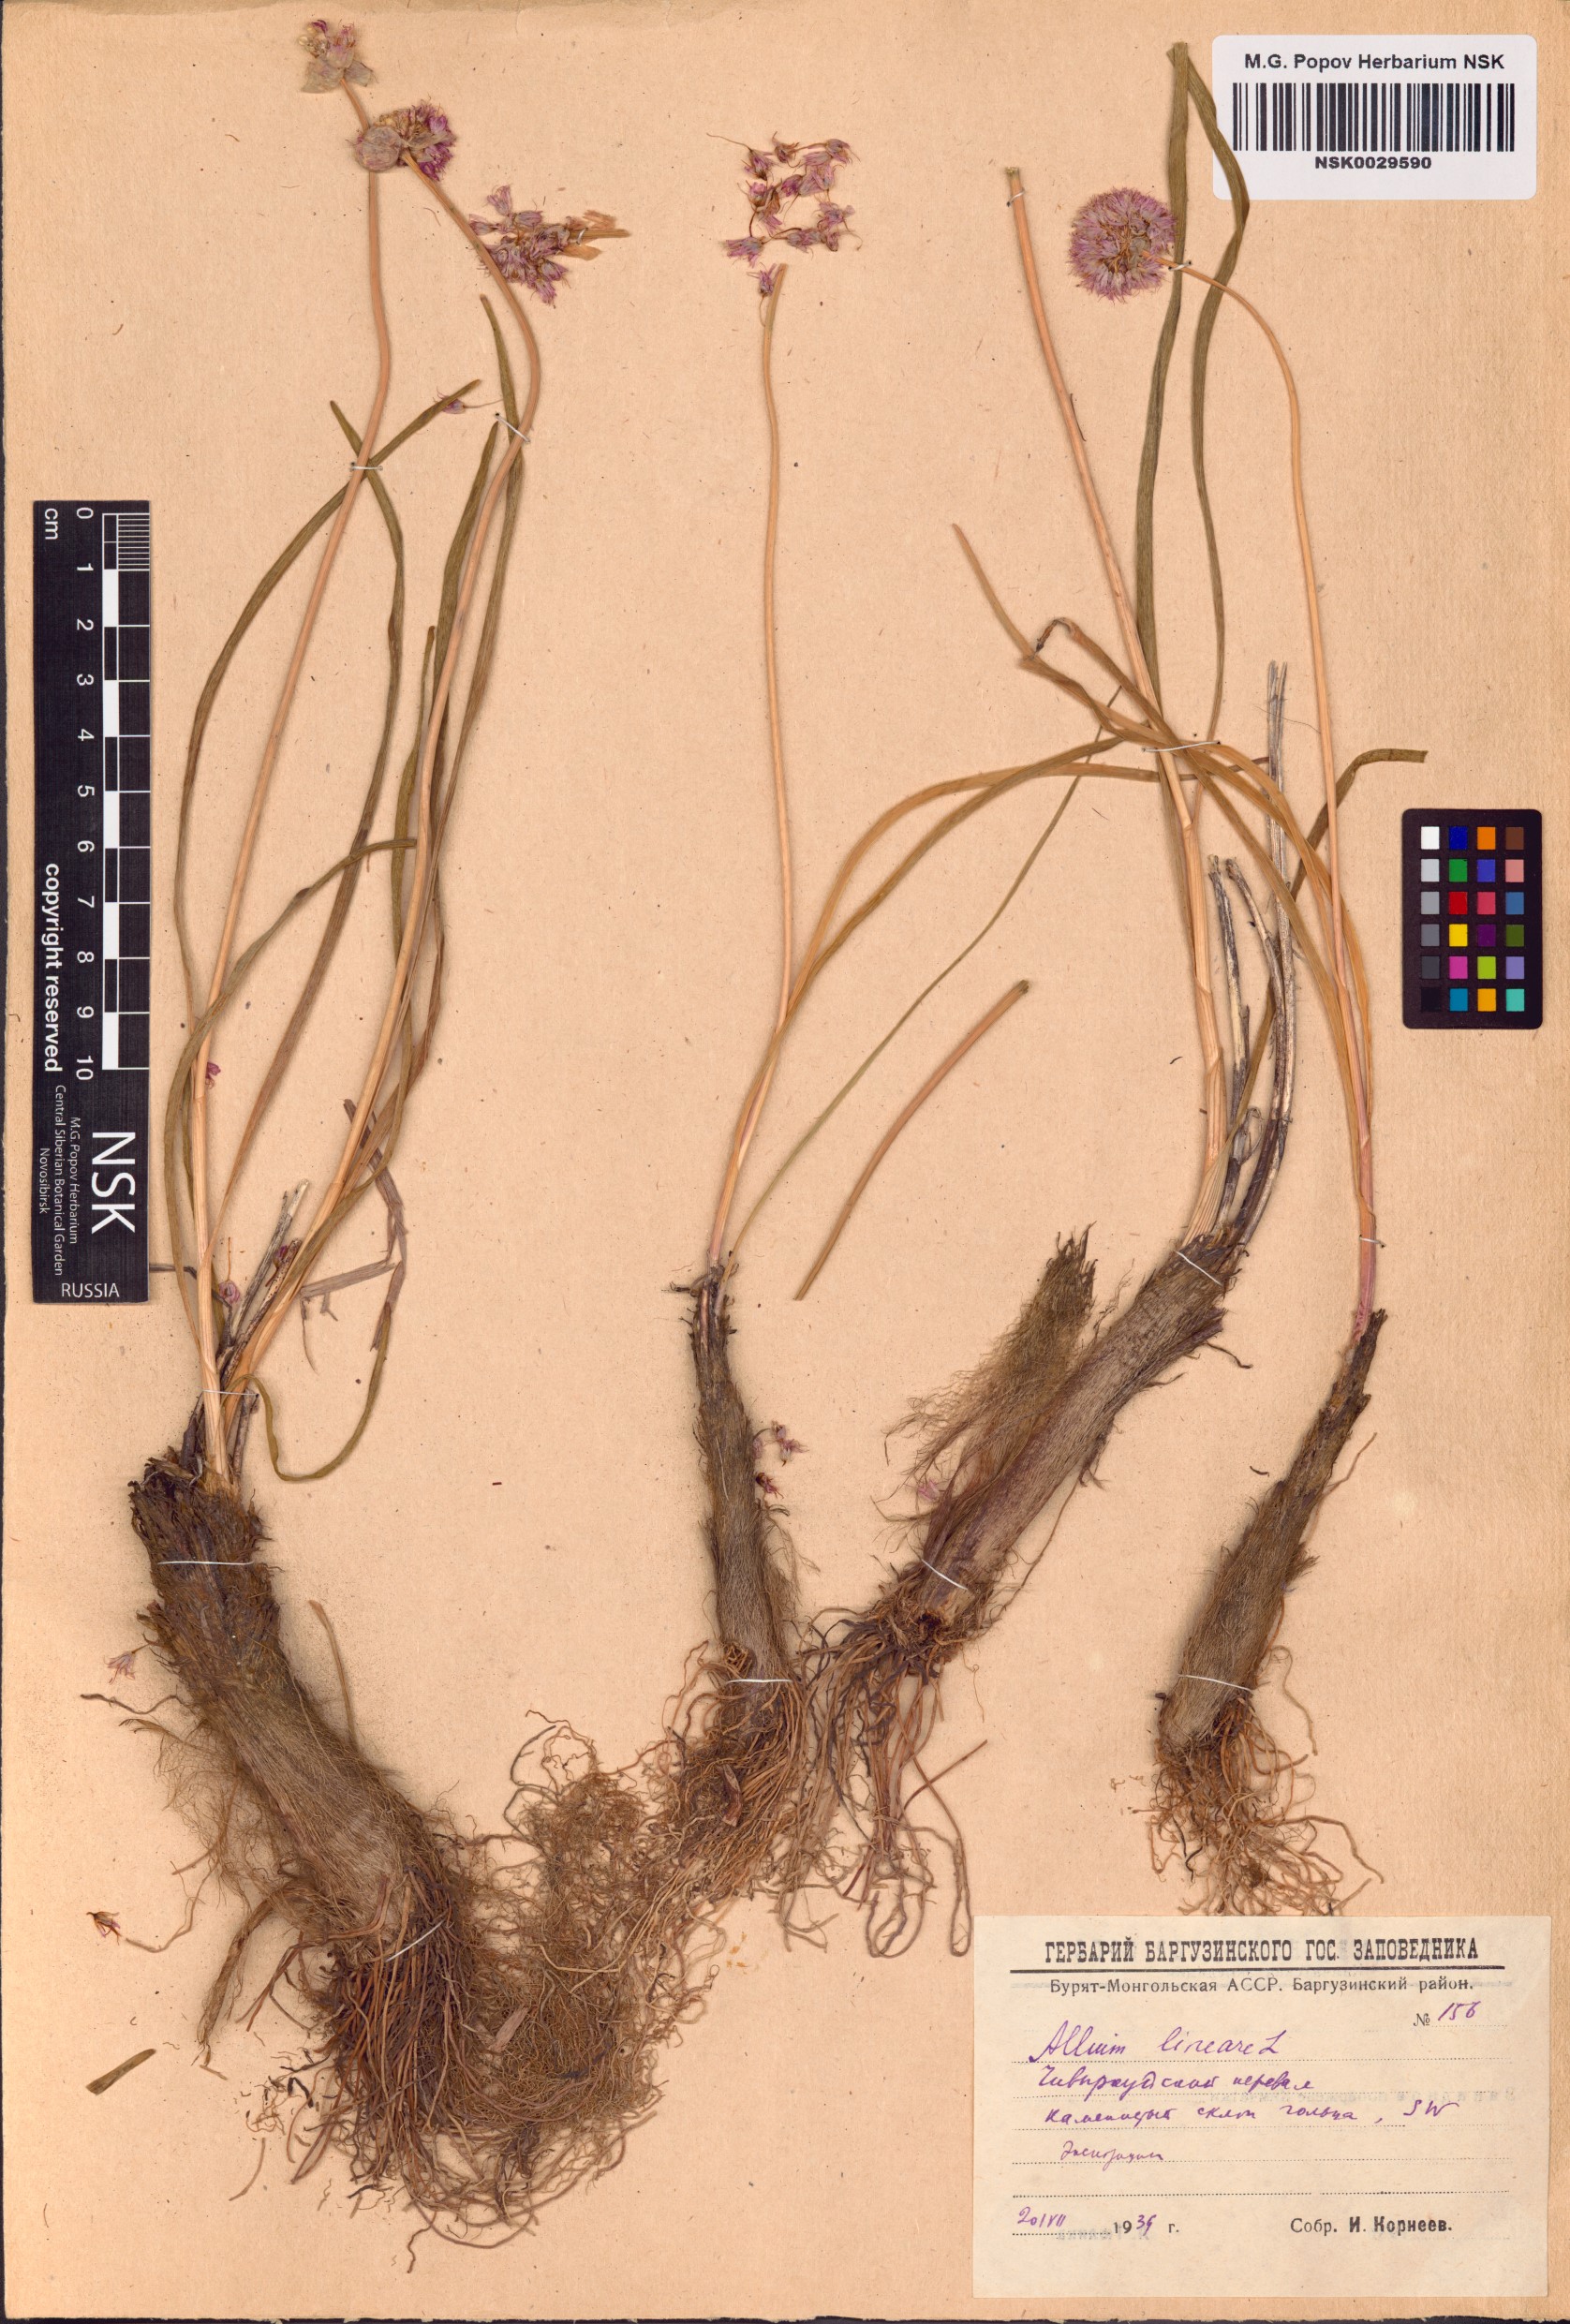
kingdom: Plantae
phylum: Tracheophyta
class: Liliopsida
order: Asparagales
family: Amaryllidaceae
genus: Allium
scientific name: Allium lineare
